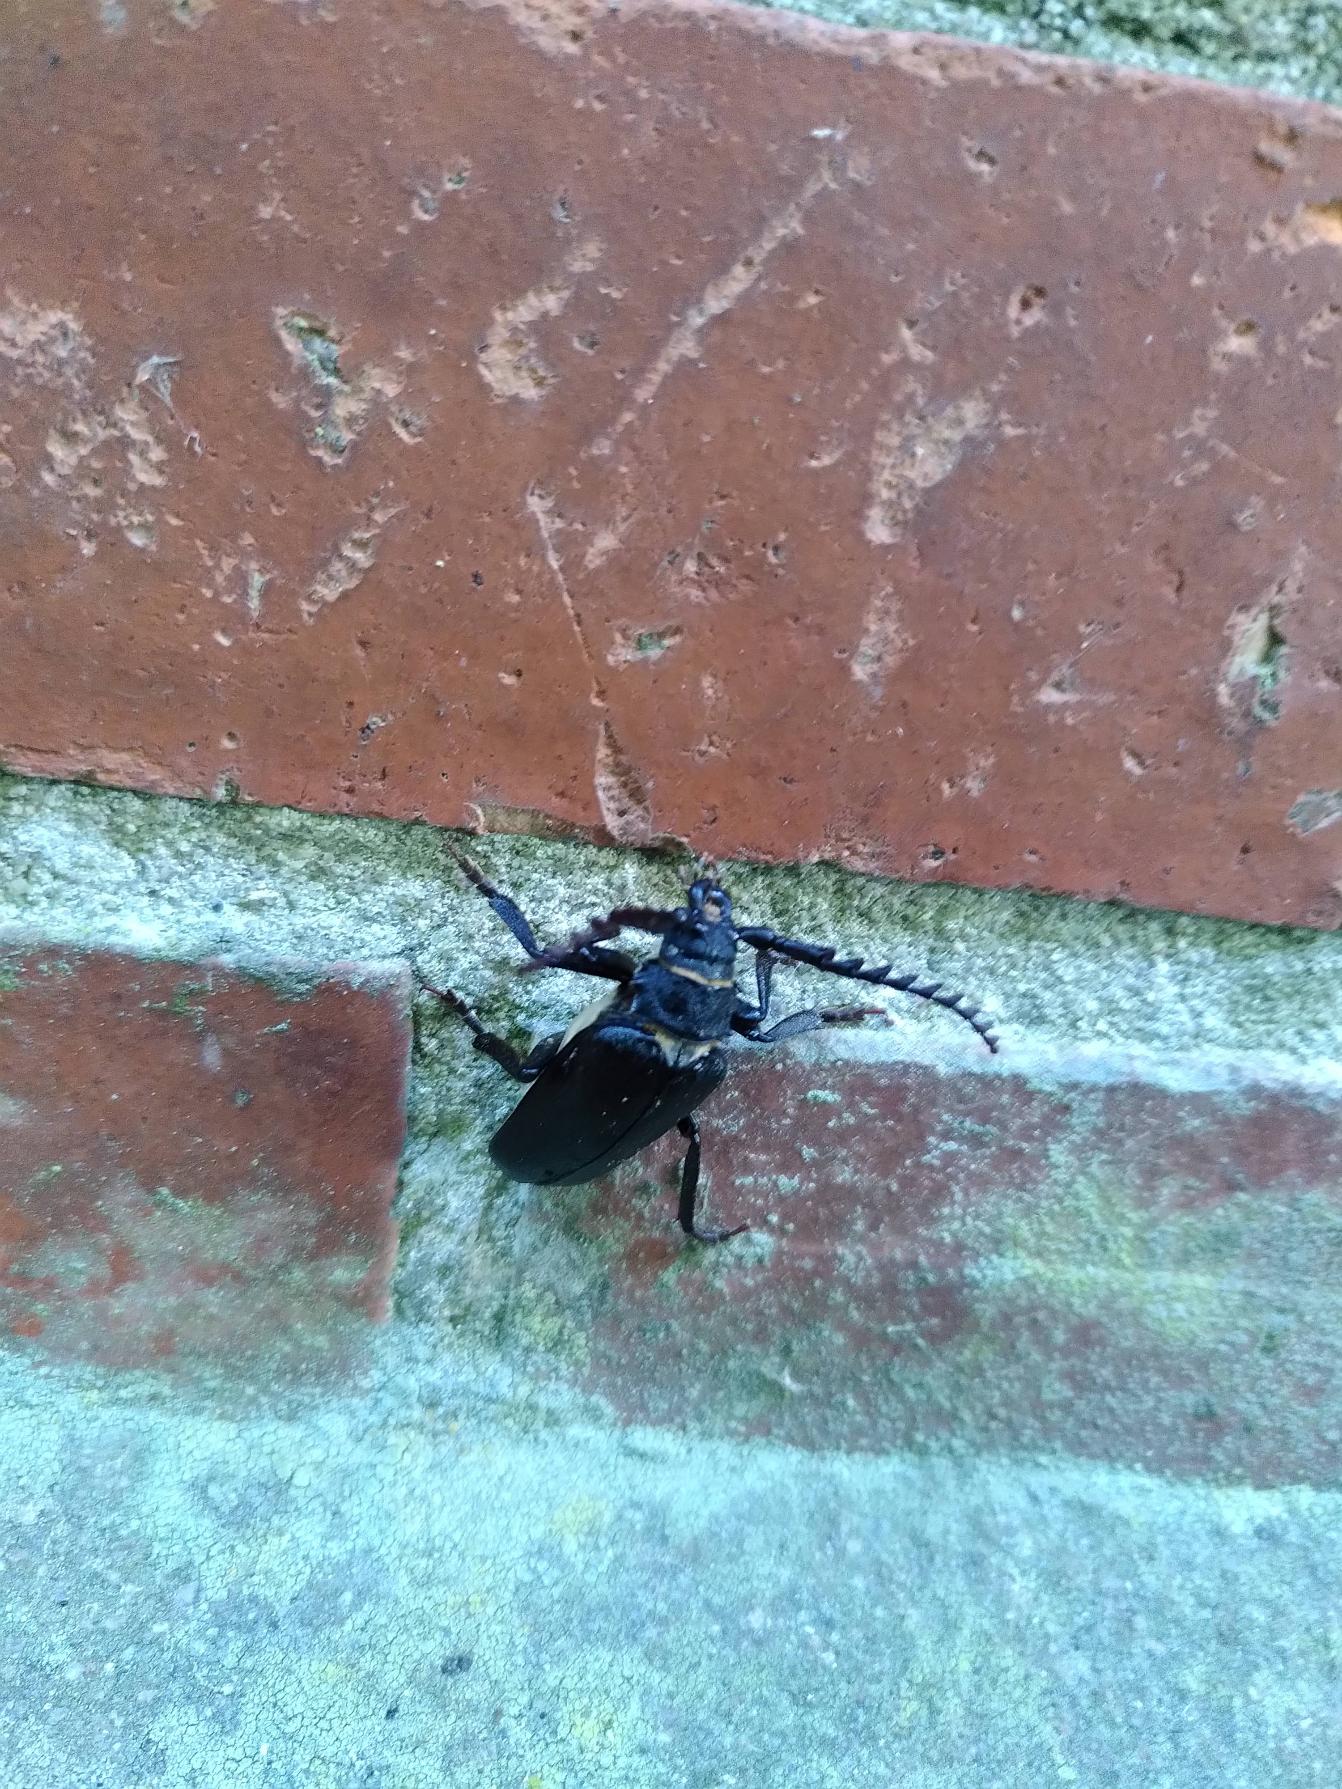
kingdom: Animalia
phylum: Arthropoda
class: Insecta
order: Coleoptera
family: Cerambycidae
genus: Prionus
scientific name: Prionus coriarius
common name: Garver
